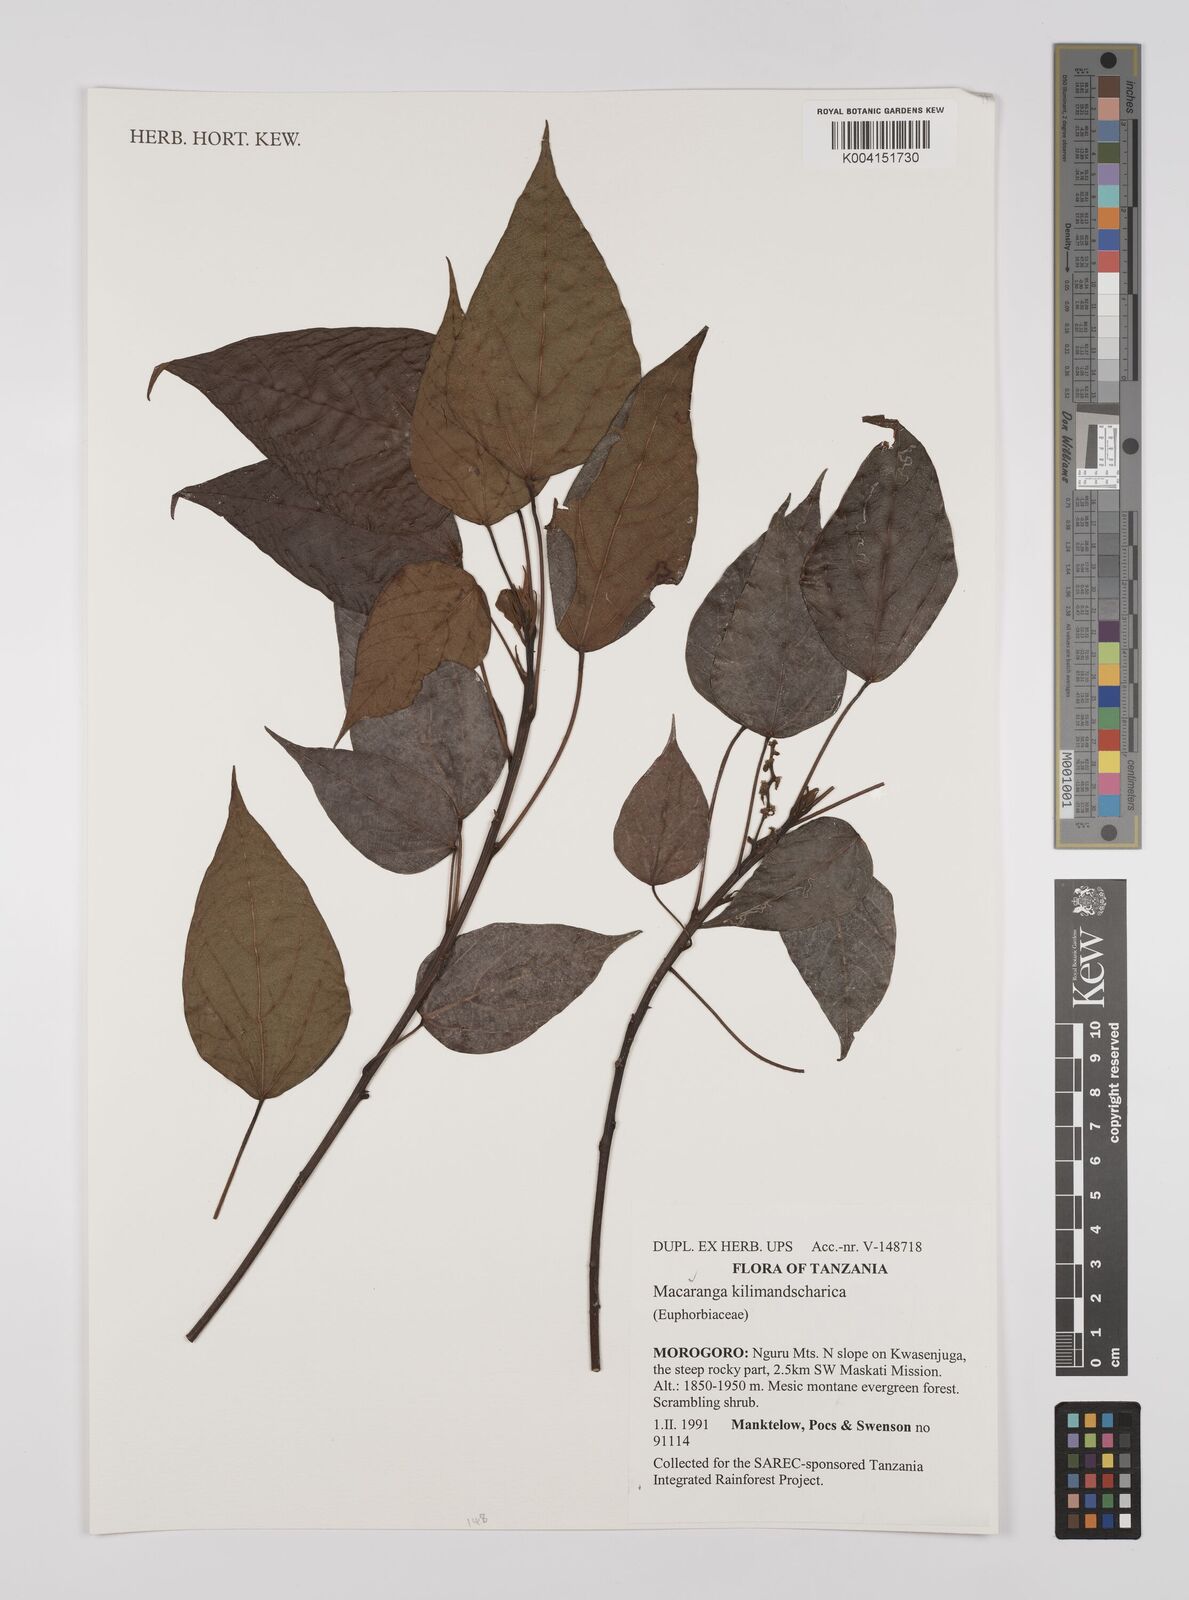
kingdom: Plantae
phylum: Tracheophyta
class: Magnoliopsida
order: Malpighiales
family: Euphorbiaceae
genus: Macaranga
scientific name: Macaranga kilimandscharica
